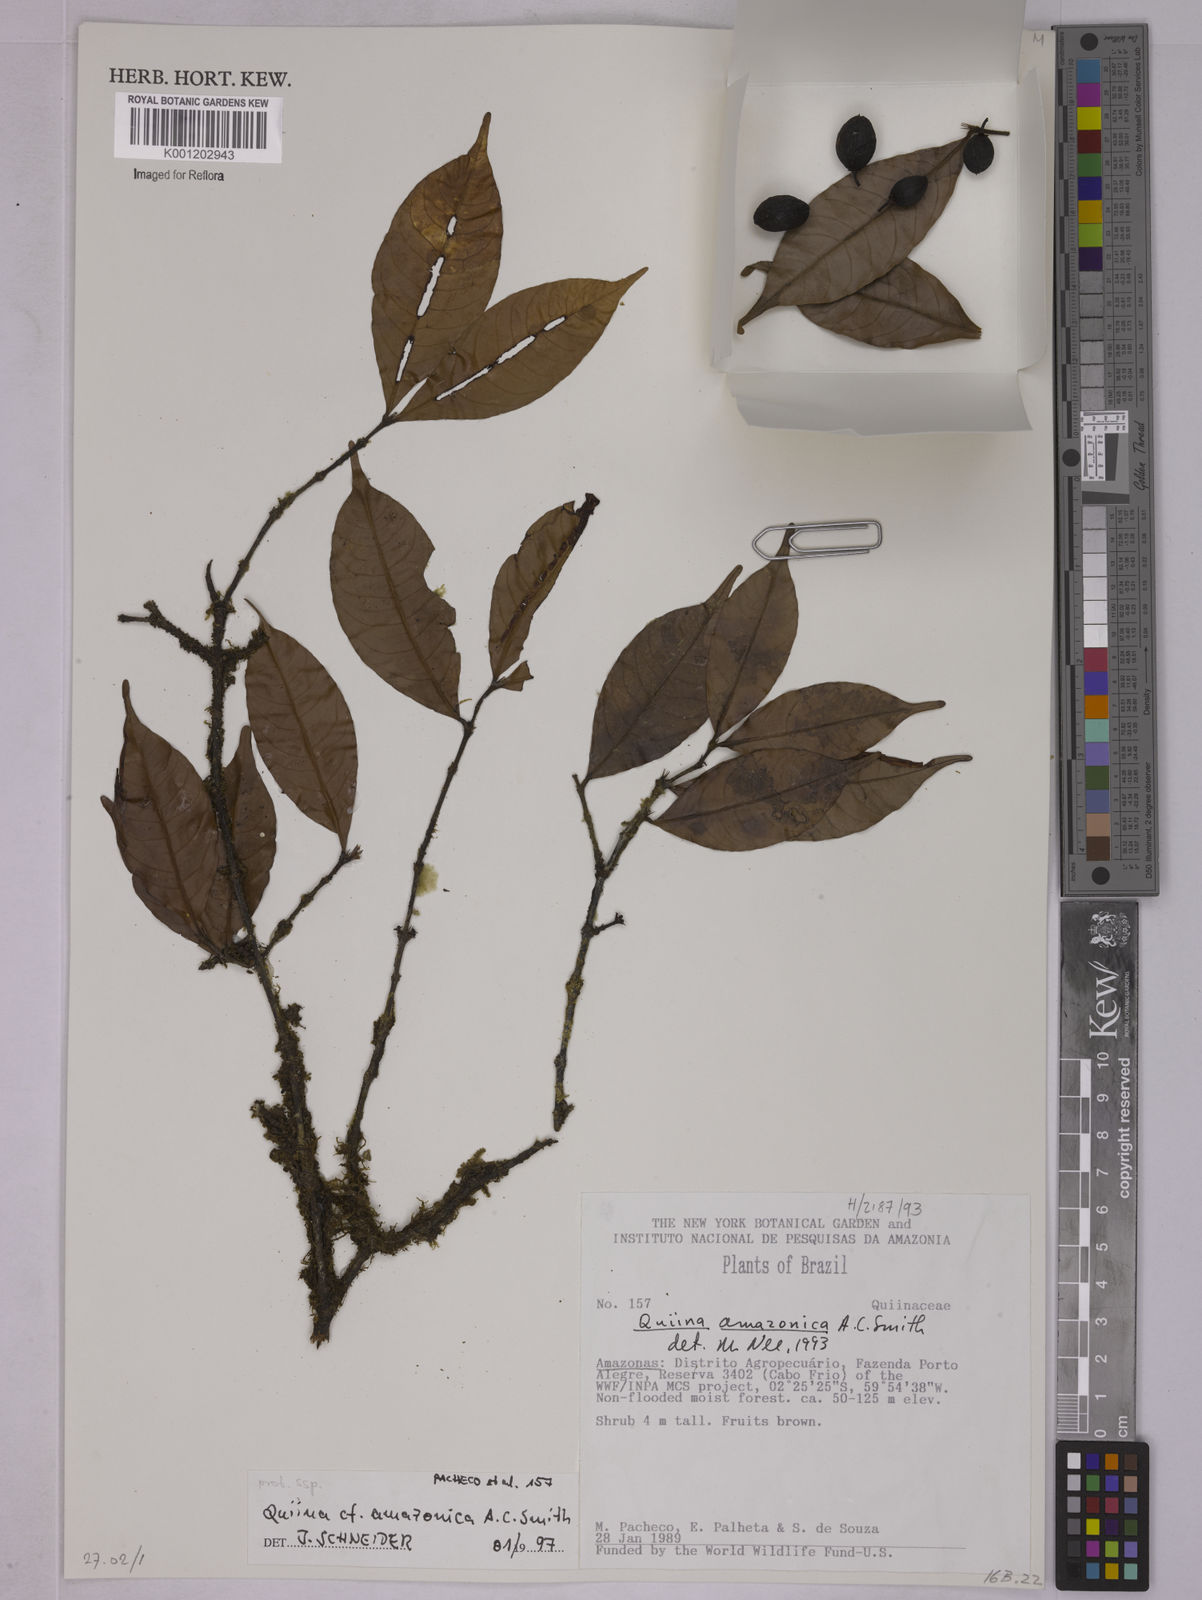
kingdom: Plantae
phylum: Tracheophyta
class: Magnoliopsida
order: Malpighiales
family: Quiinaceae
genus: Quiina
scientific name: Quiina amazonica
